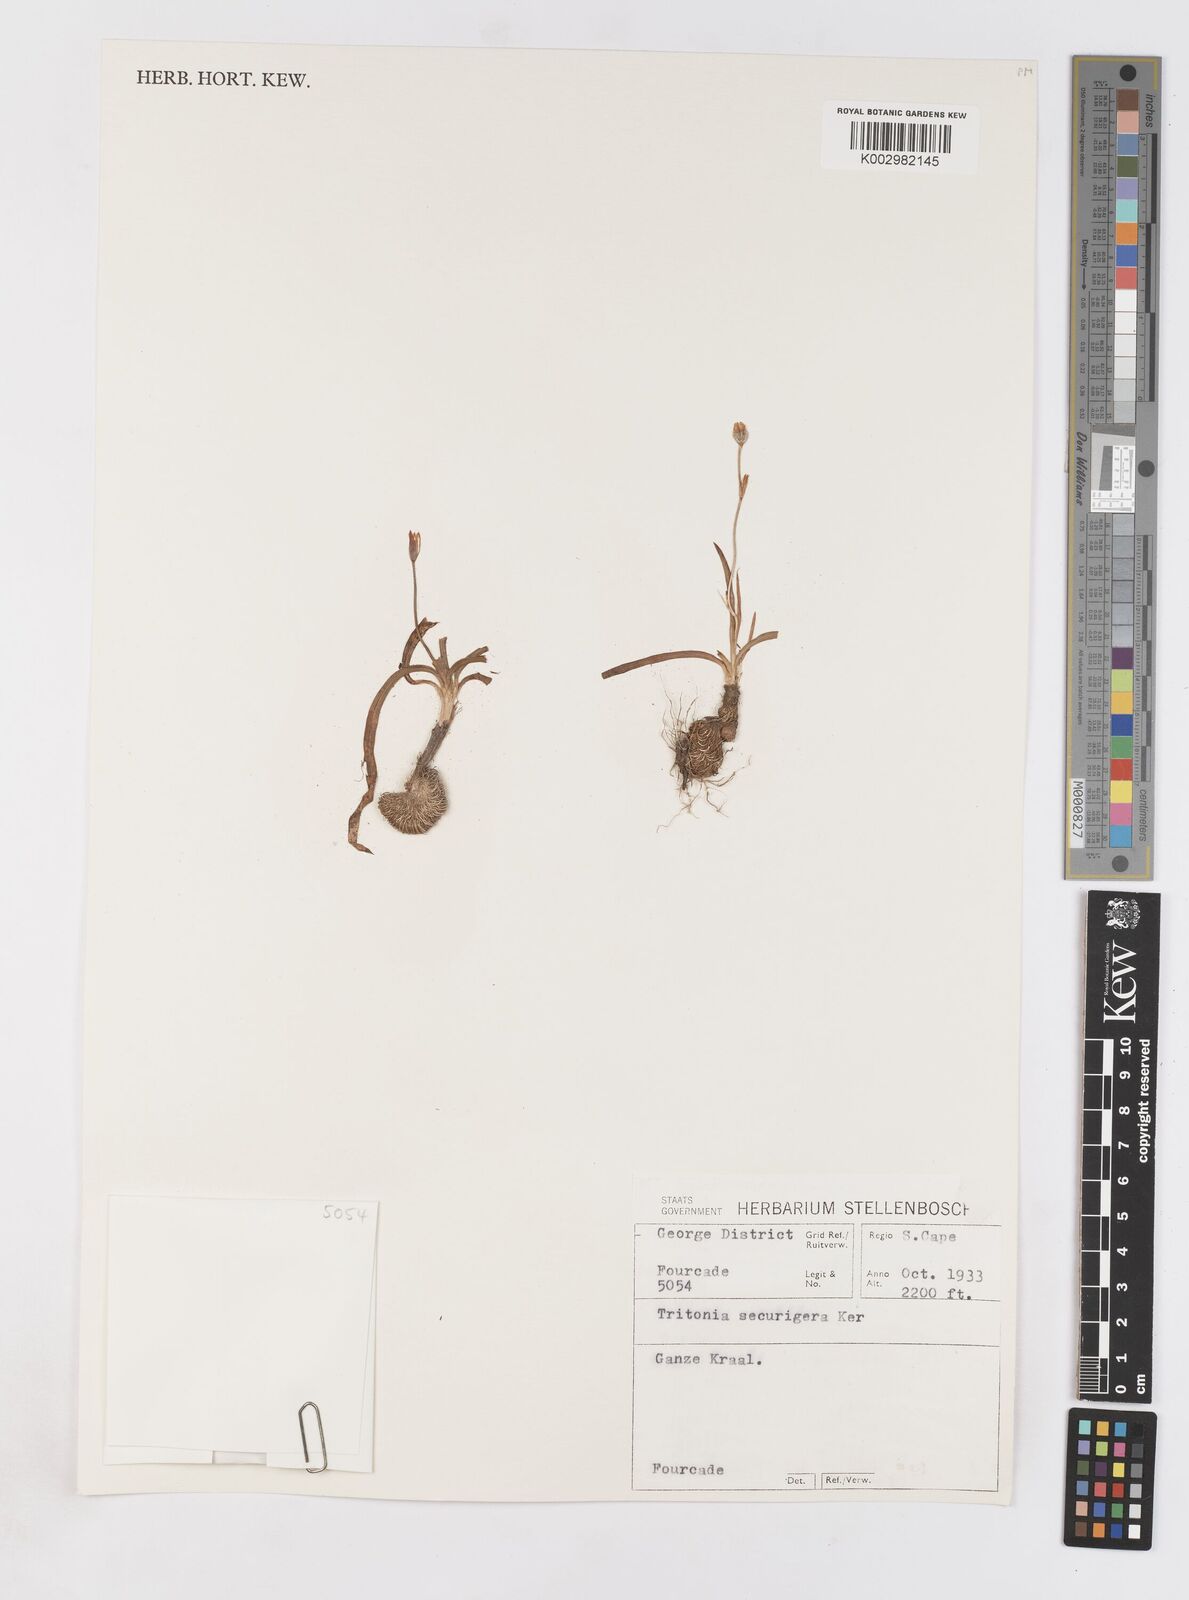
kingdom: Plantae
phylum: Tracheophyta
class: Liliopsida
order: Asparagales
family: Iridaceae
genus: Tritonia
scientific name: Tritonia securigera
